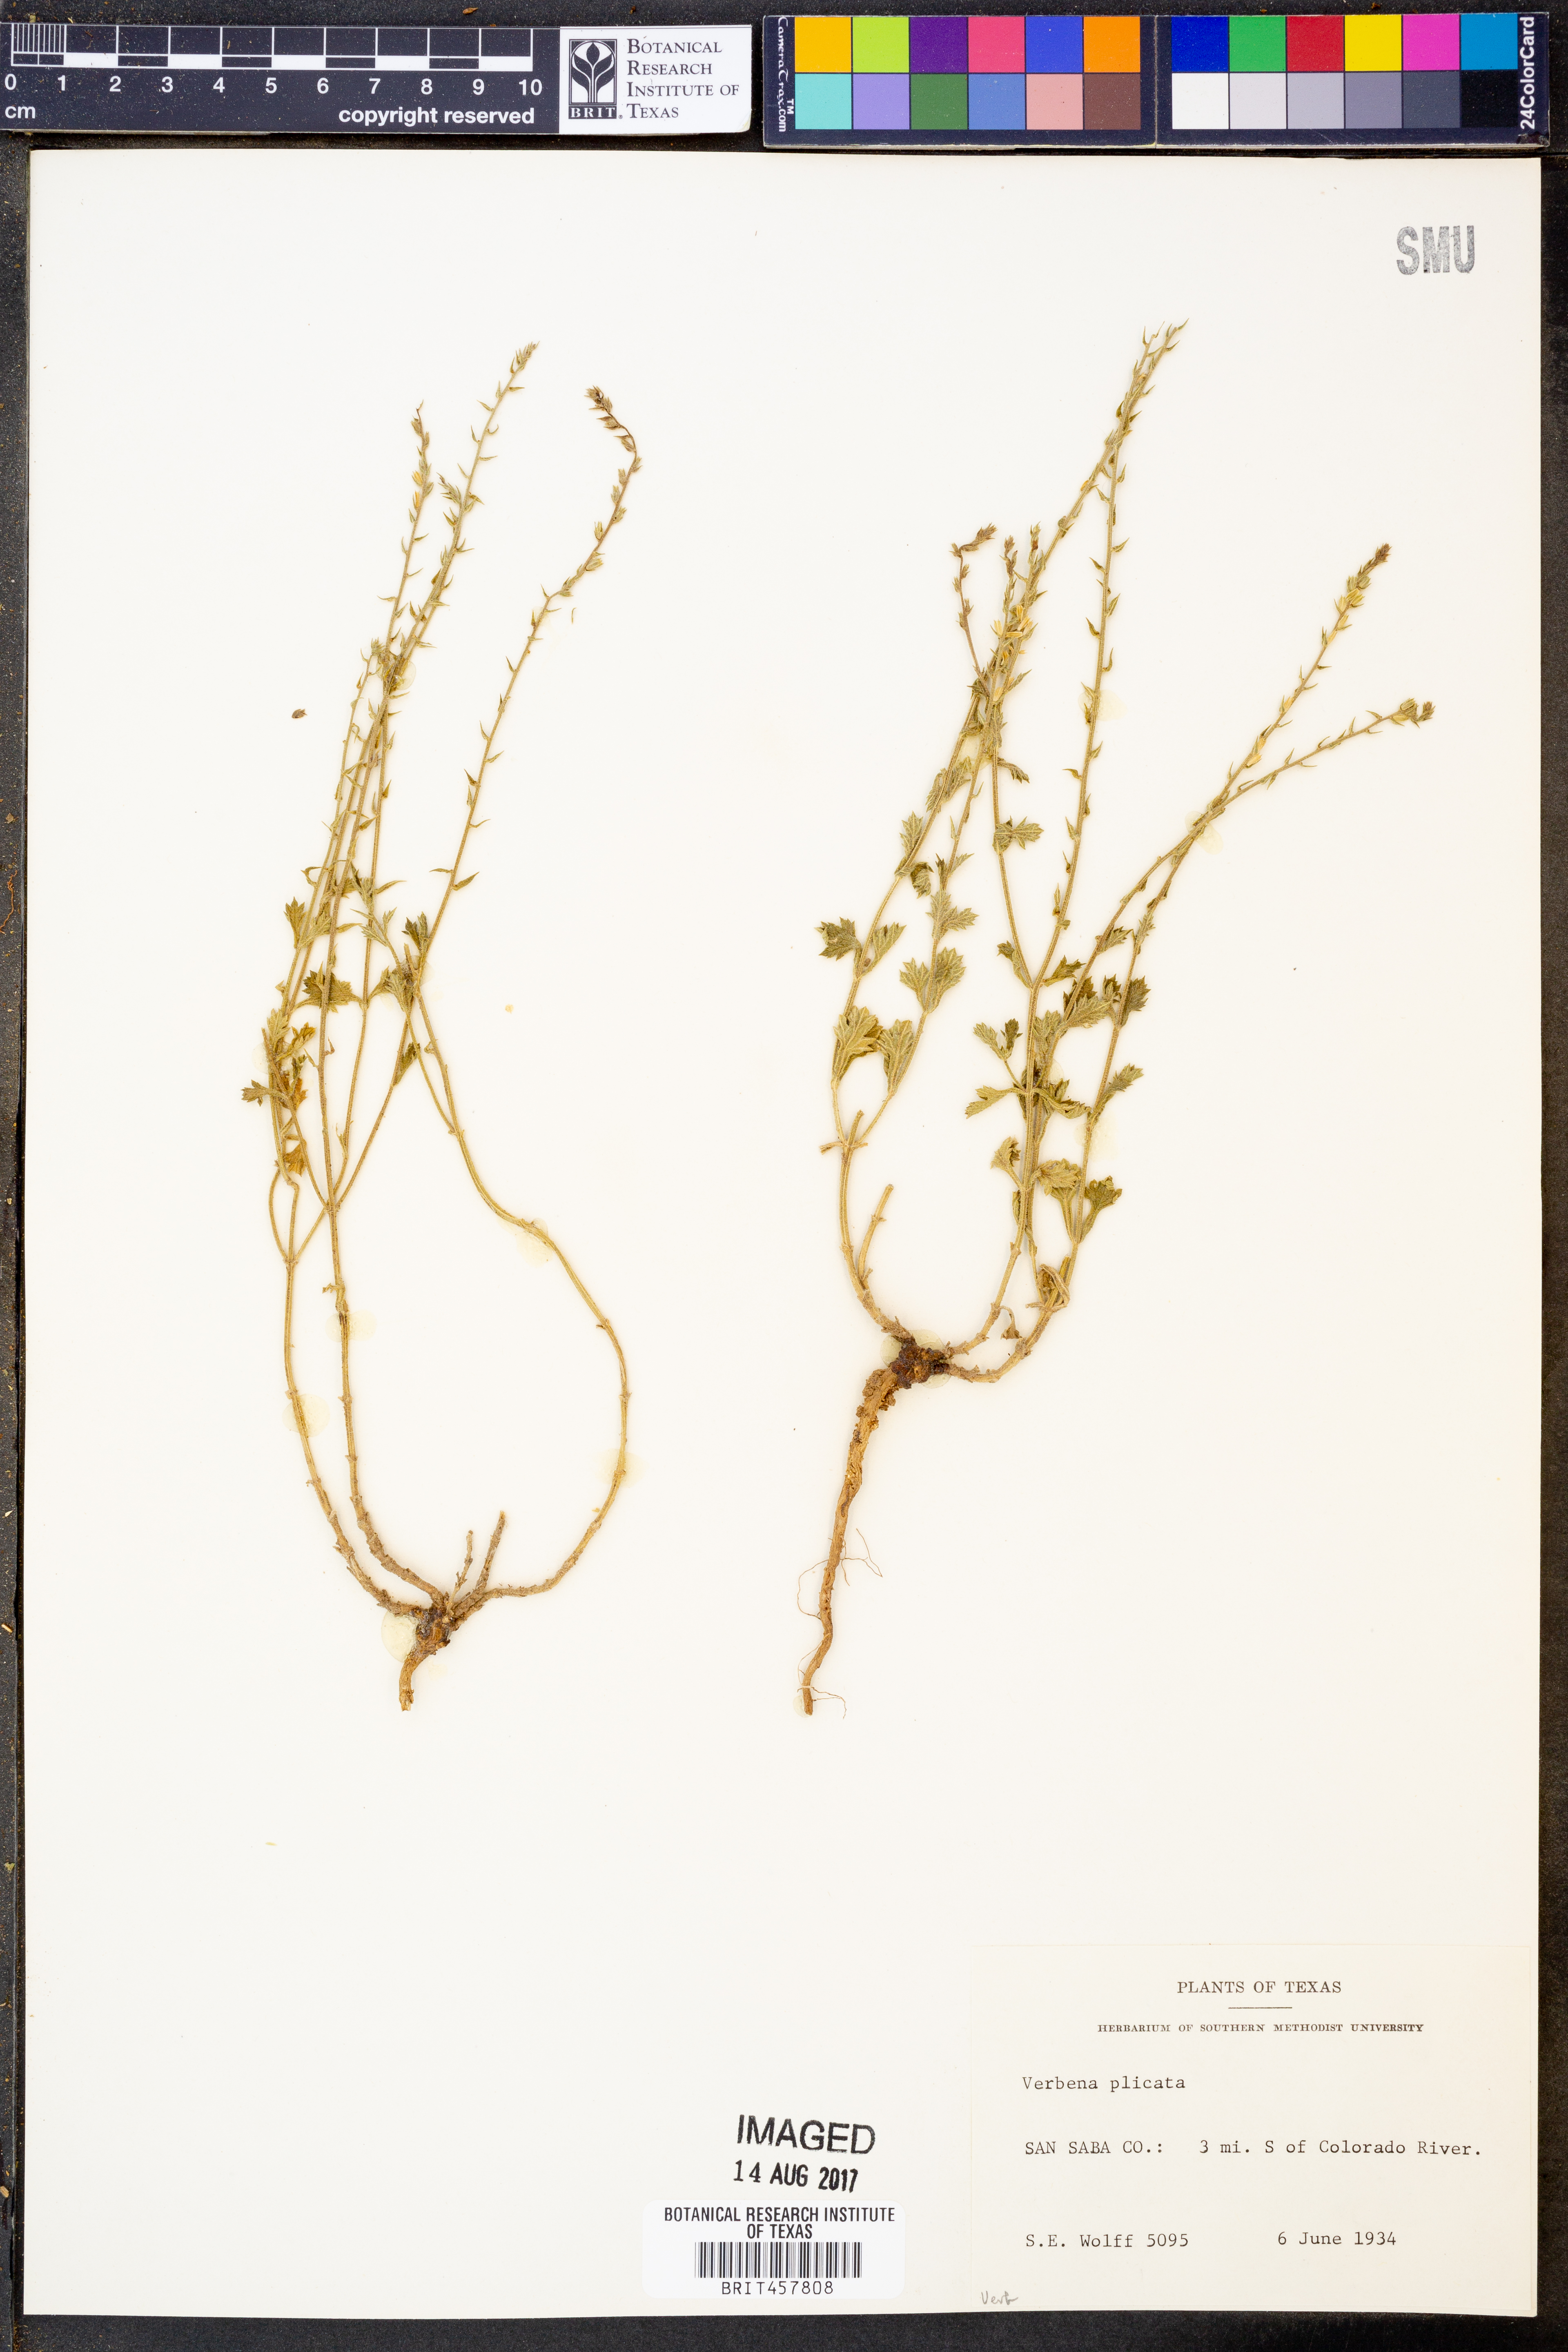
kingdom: Plantae
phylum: Tracheophyta
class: Magnoliopsida
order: Lamiales
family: Verbenaceae
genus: Verbena
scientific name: Verbena plicata
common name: Fan-leaf vervain
